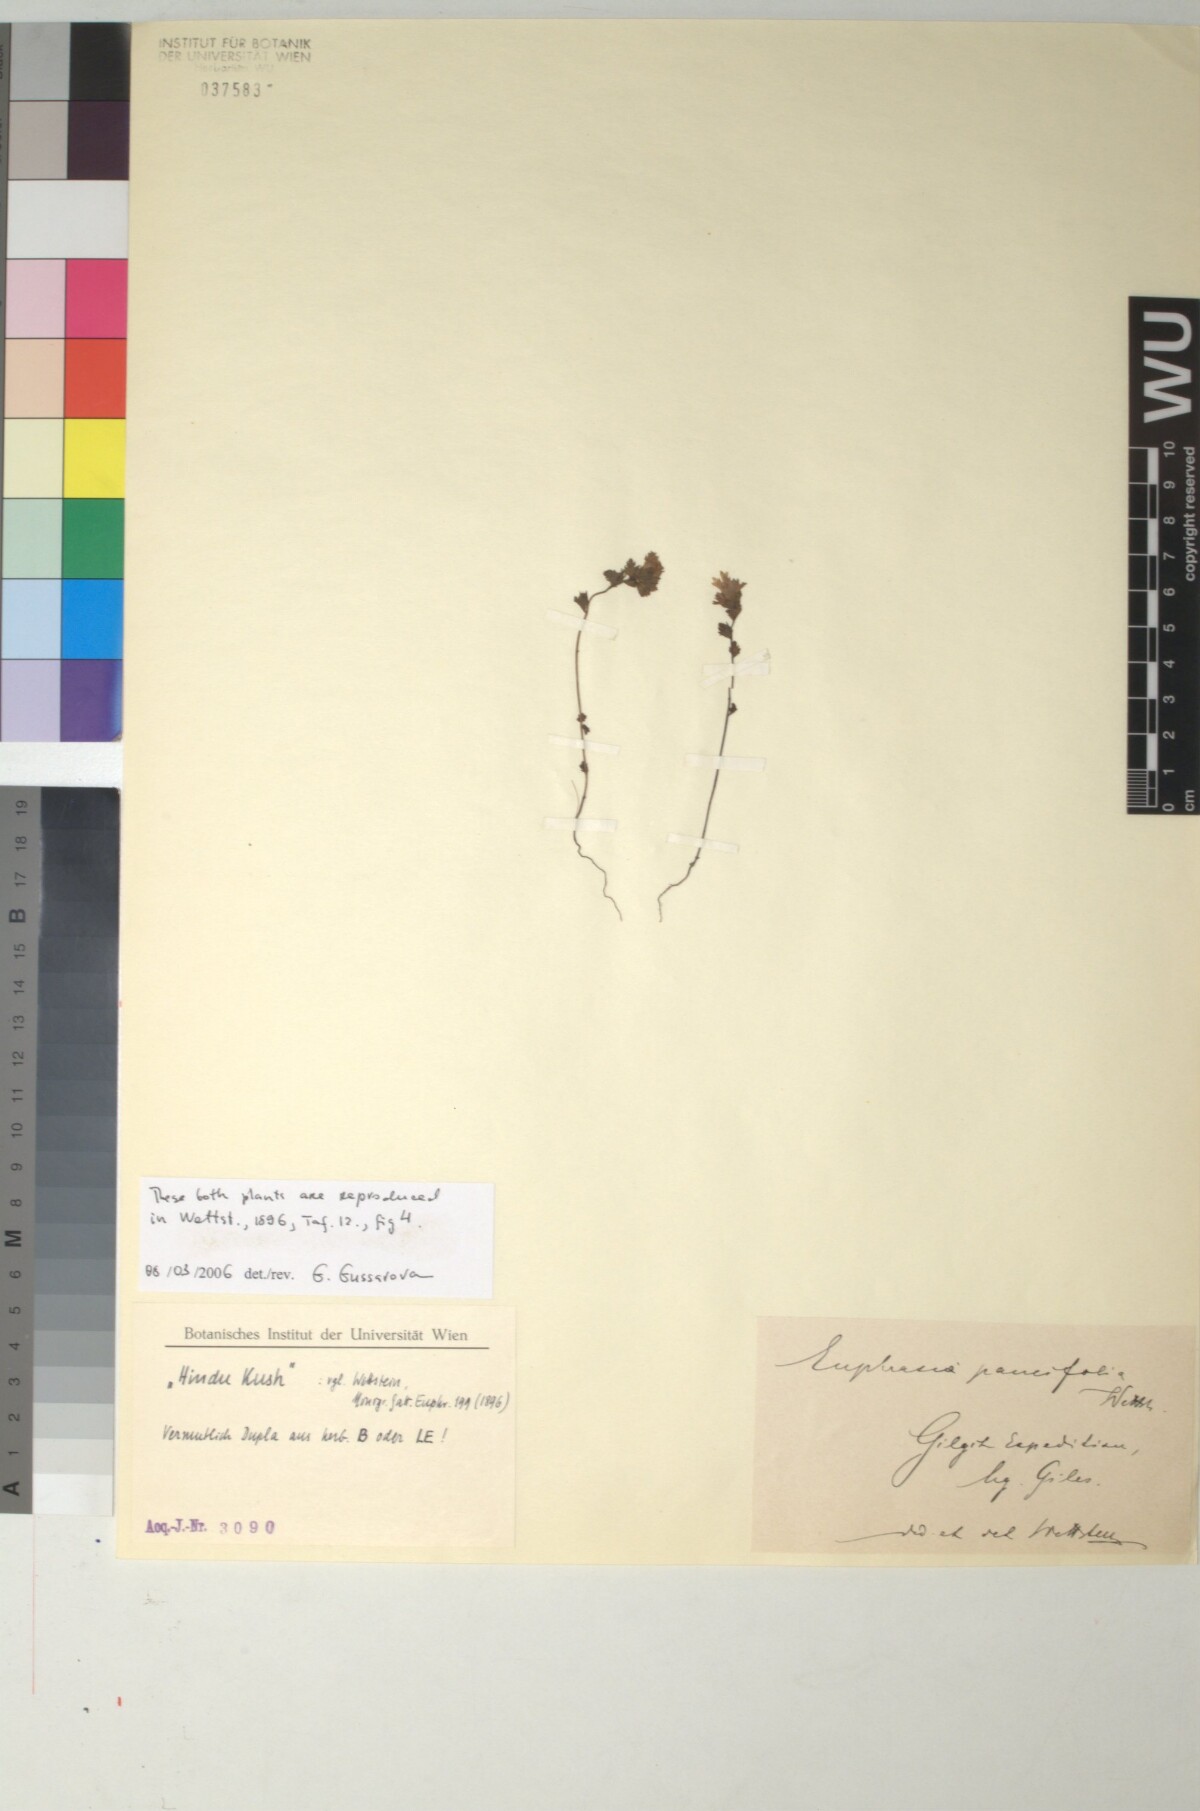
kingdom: Plantae
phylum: Tracheophyta
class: Magnoliopsida
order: Lamiales
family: Orobanchaceae
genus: Euphrasia
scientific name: Euphrasia paucifolia
